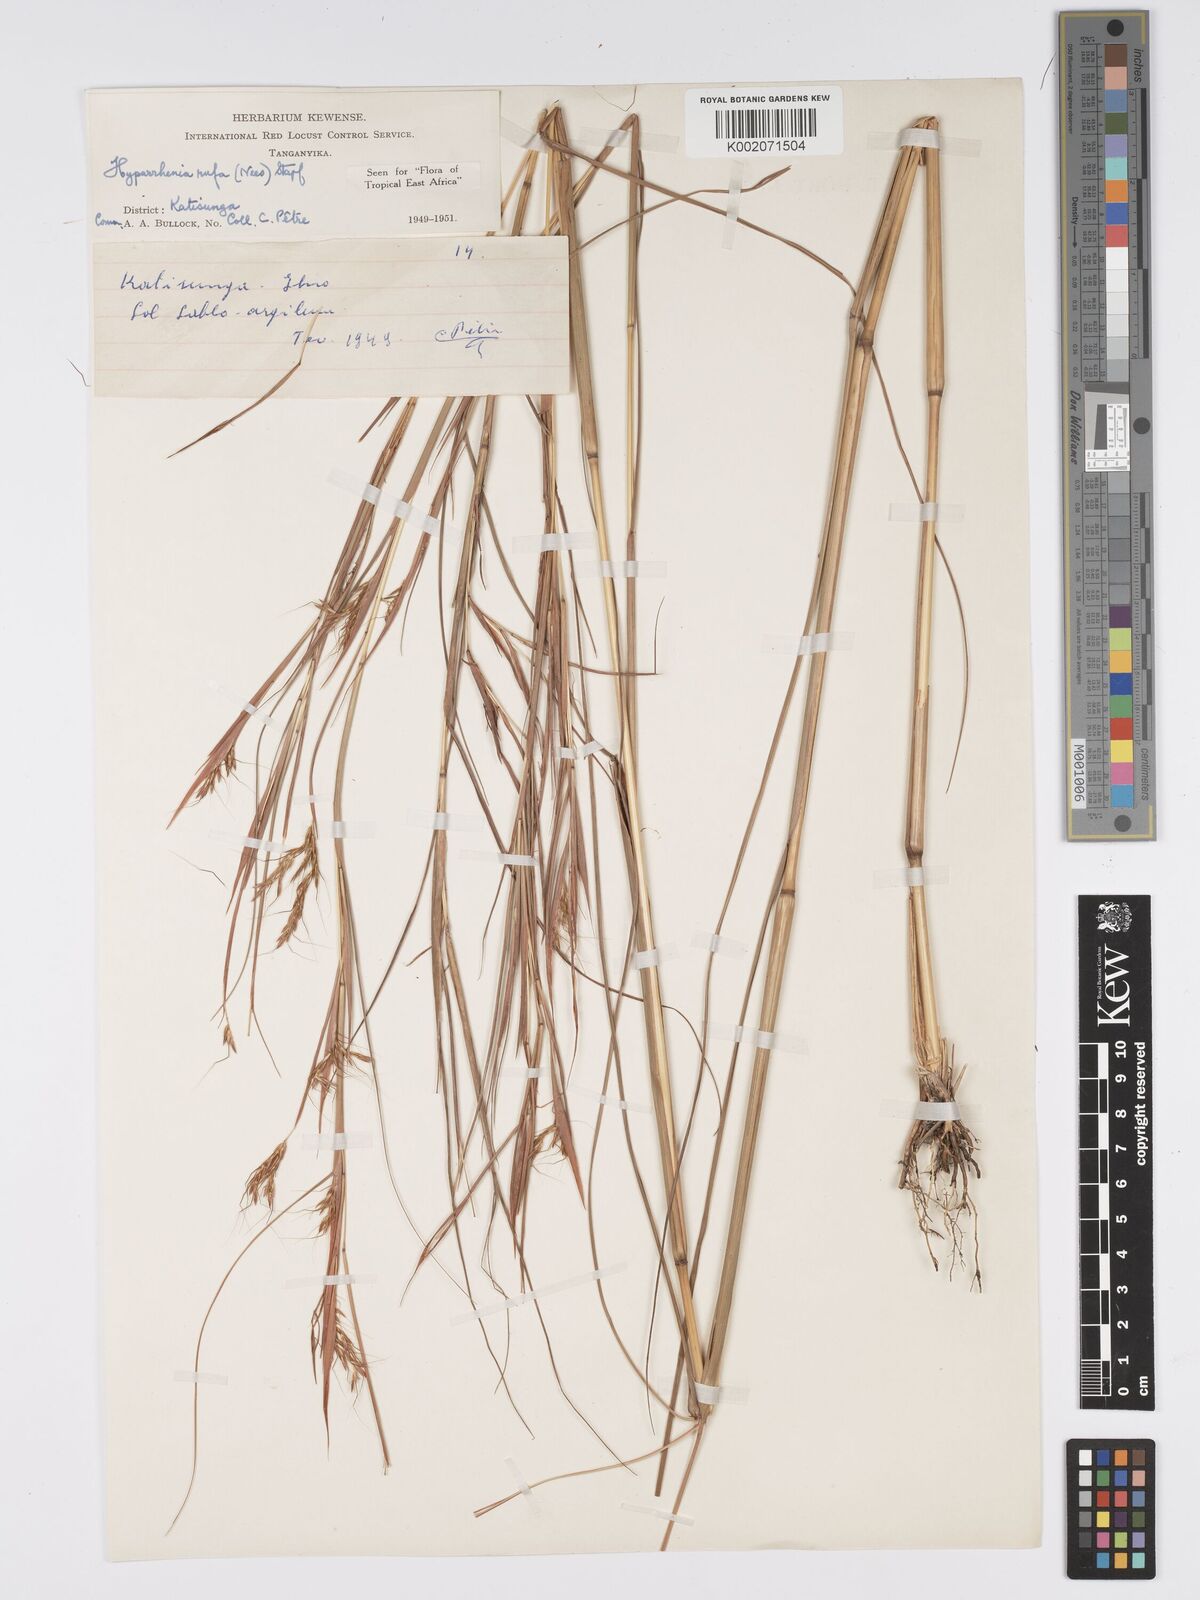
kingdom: Plantae
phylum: Tracheophyta
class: Liliopsida
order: Poales
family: Poaceae
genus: Hyparrhenia
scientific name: Hyparrhenia rufa
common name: Jaraguagrass
